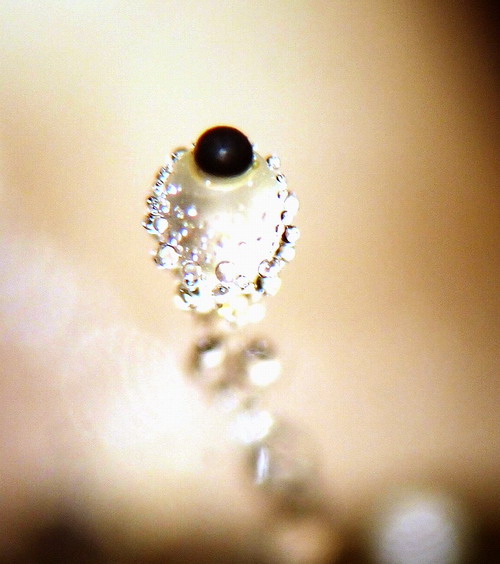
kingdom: Fungi
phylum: Mucoromycota
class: Mucoromycetes
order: Mucorales
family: Pilobolaceae
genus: Pilobolus
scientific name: Pilobolus crystallinus
